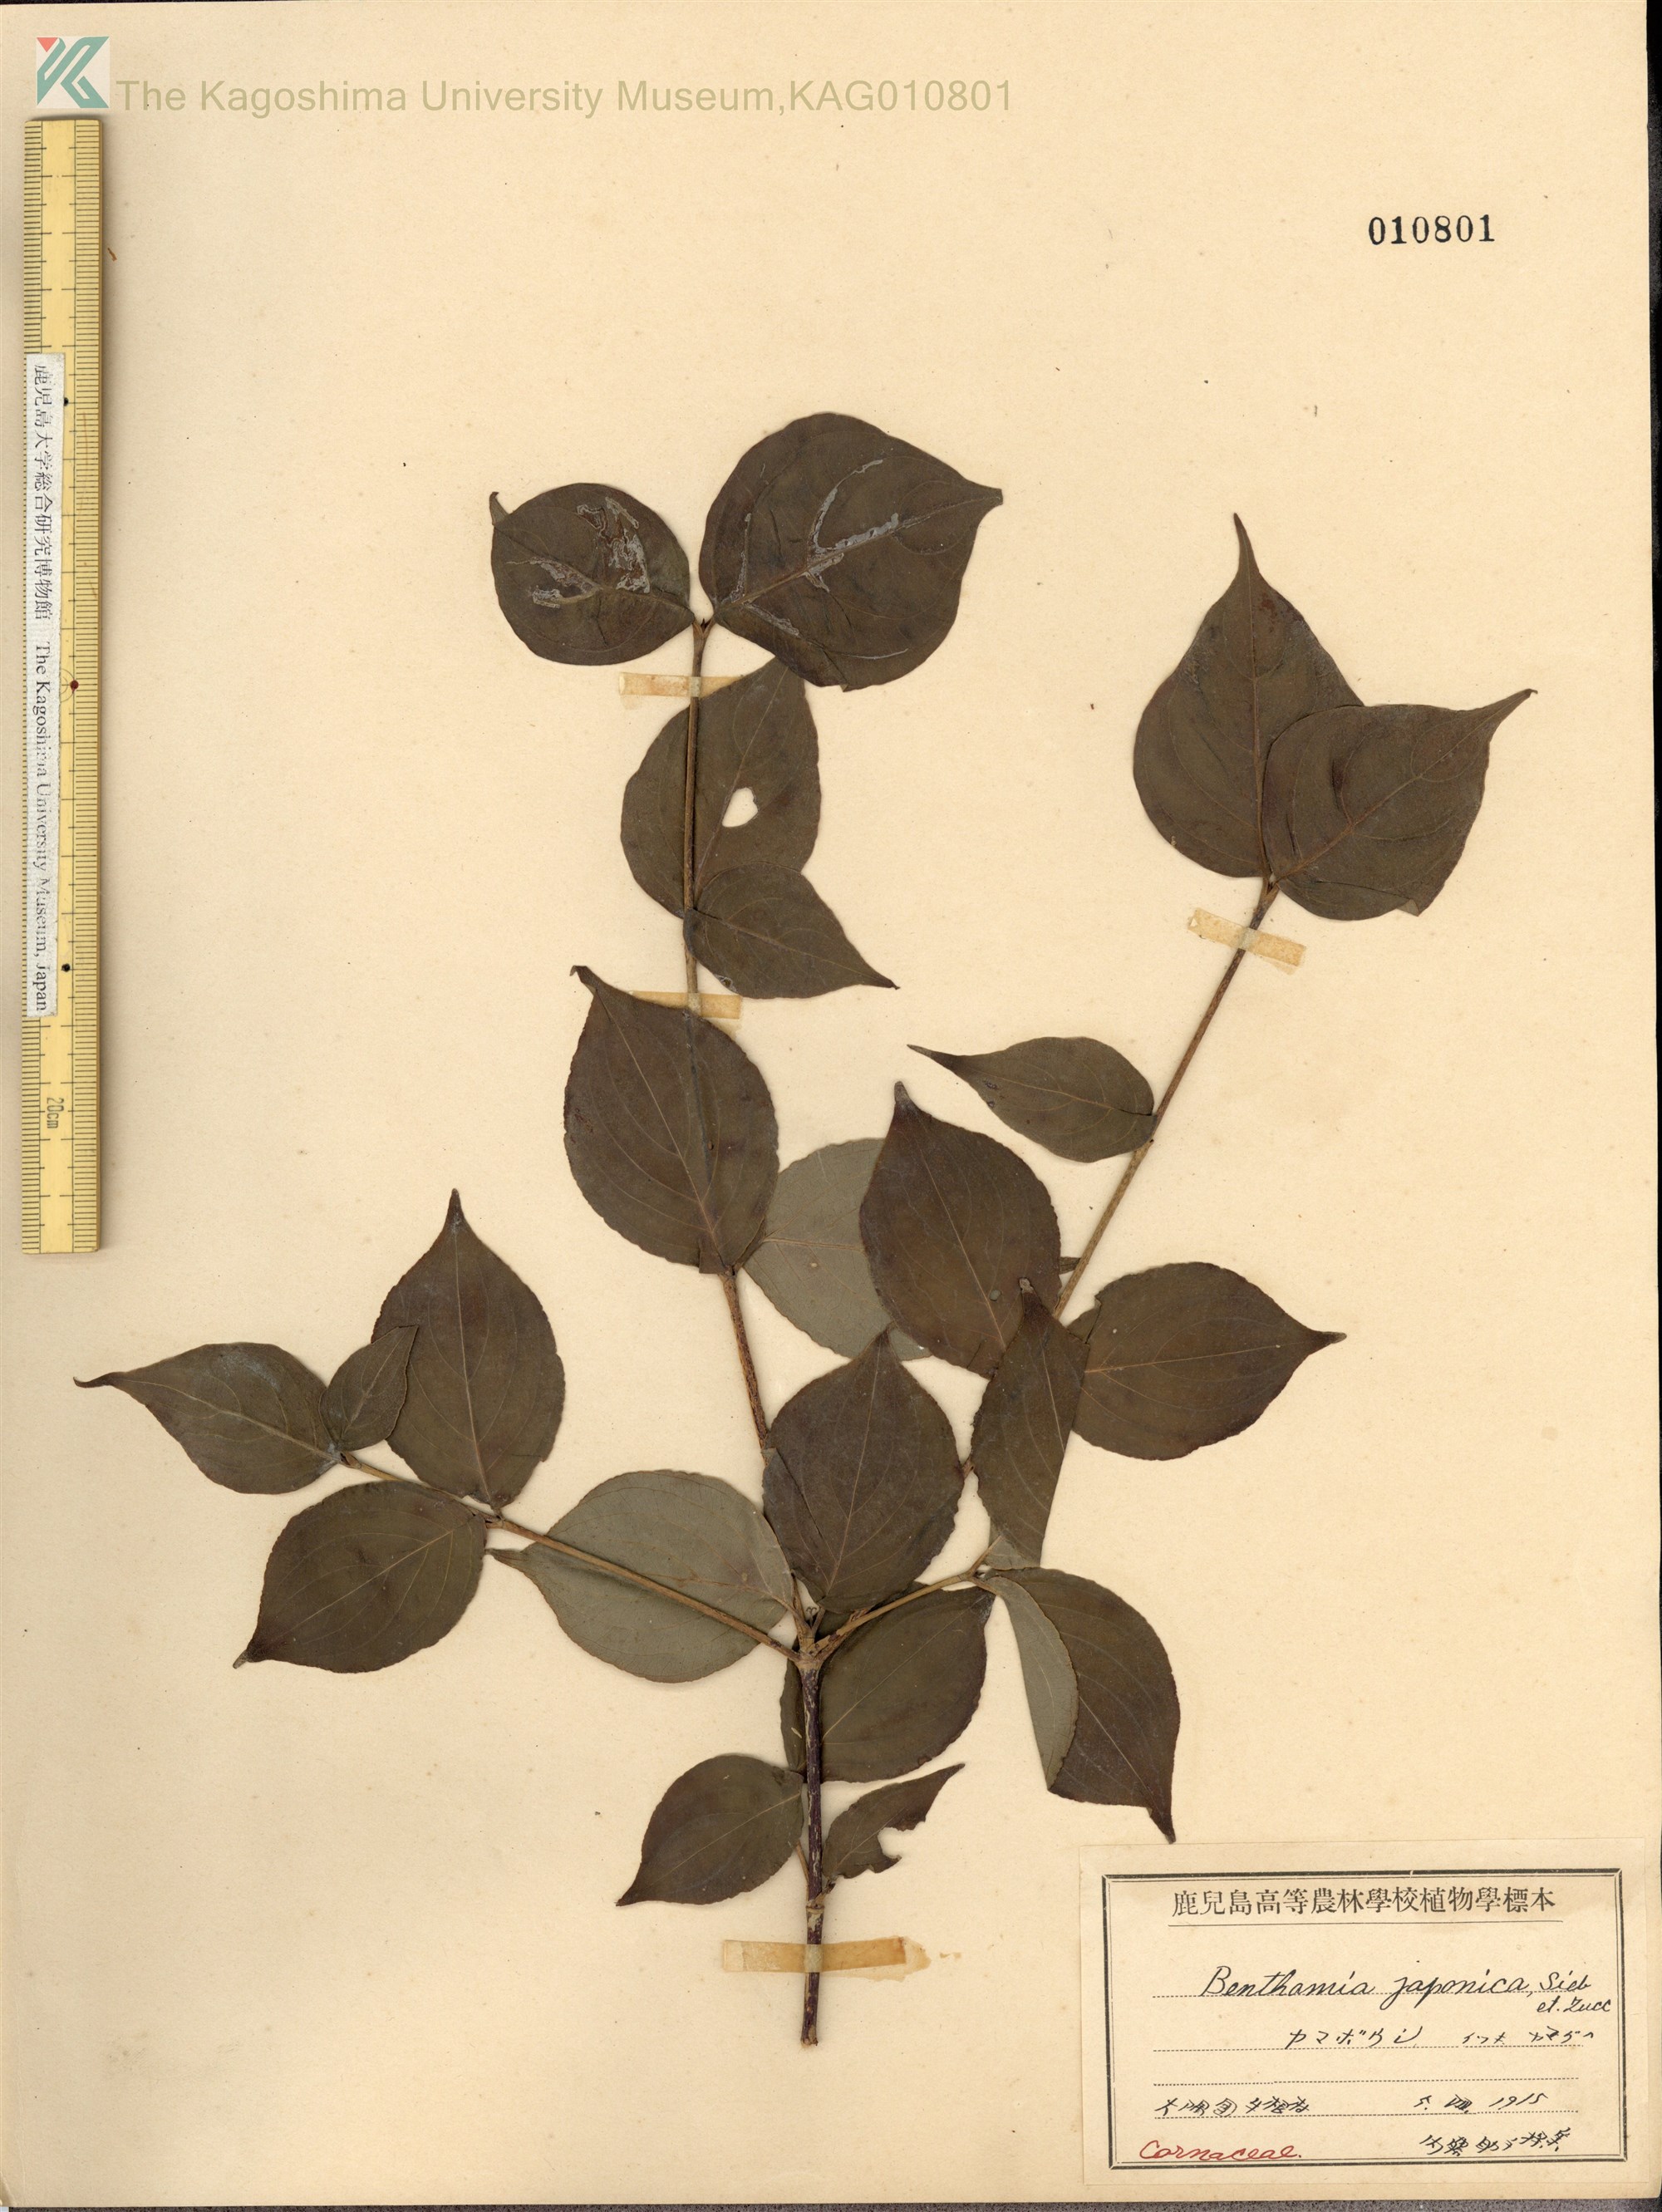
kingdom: Plantae
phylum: Tracheophyta
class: Magnoliopsida
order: Cornales
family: Cornaceae
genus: Cornus
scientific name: Cornus kousa
